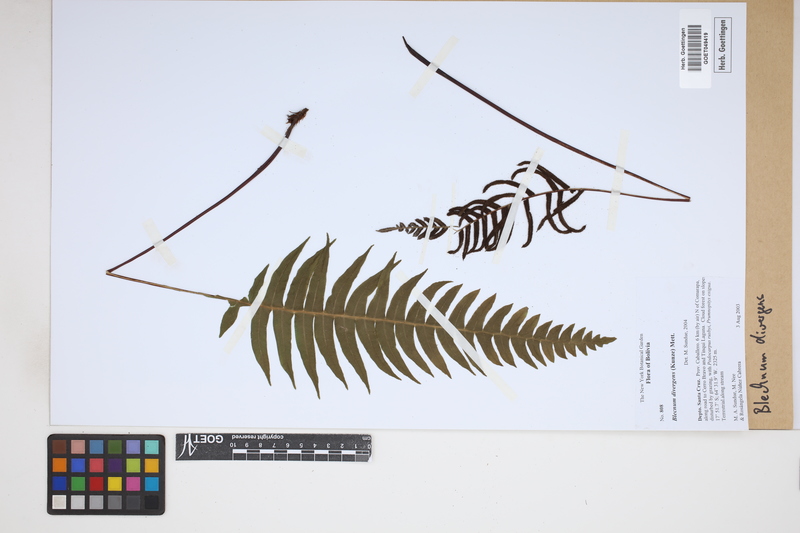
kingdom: Plantae
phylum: Tracheophyta
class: Polypodiopsida
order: Polypodiales
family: Blechnaceae
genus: Austroblechnum
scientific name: Austroblechnum divergens
